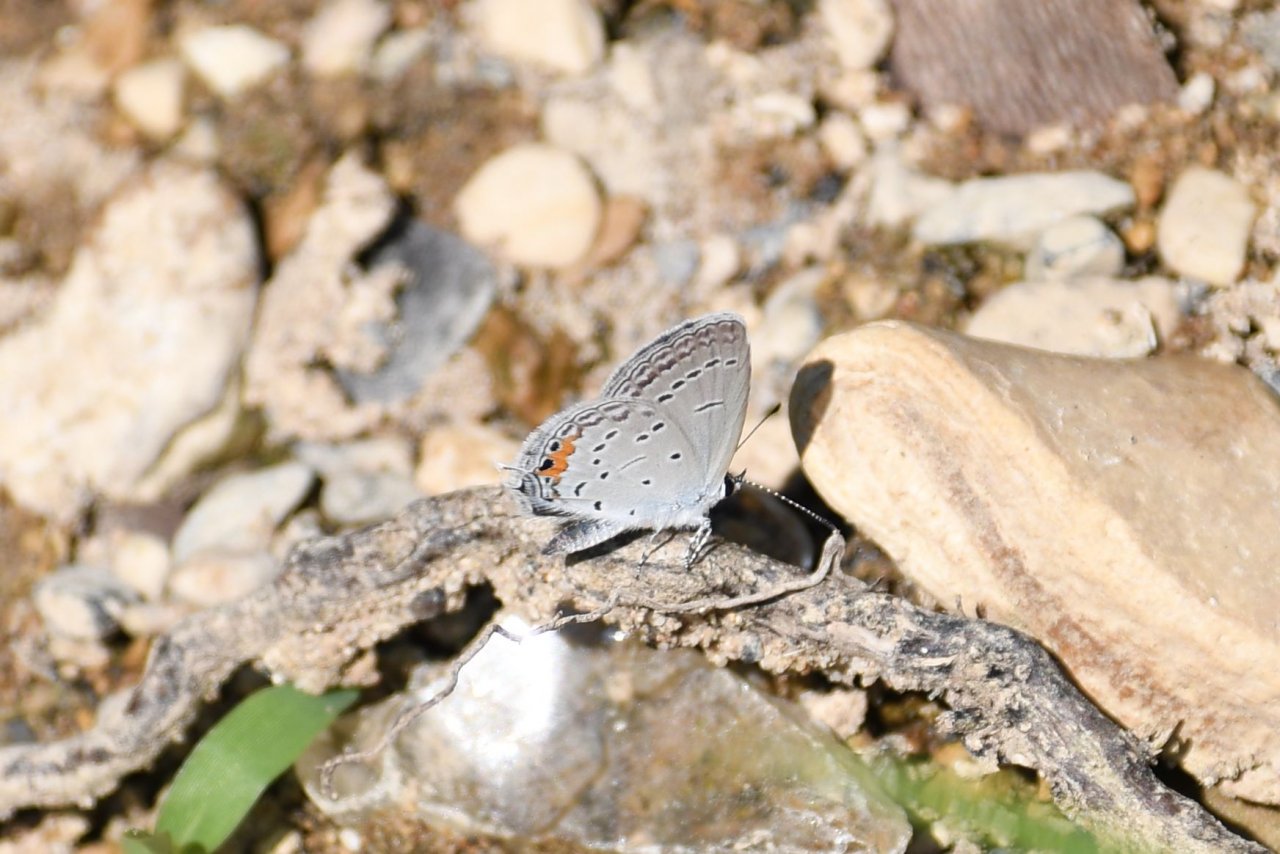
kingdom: Animalia
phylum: Arthropoda
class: Insecta
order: Lepidoptera
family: Lycaenidae
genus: Elkalyce
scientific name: Elkalyce comyntas
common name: Eastern Tailed-Blue
